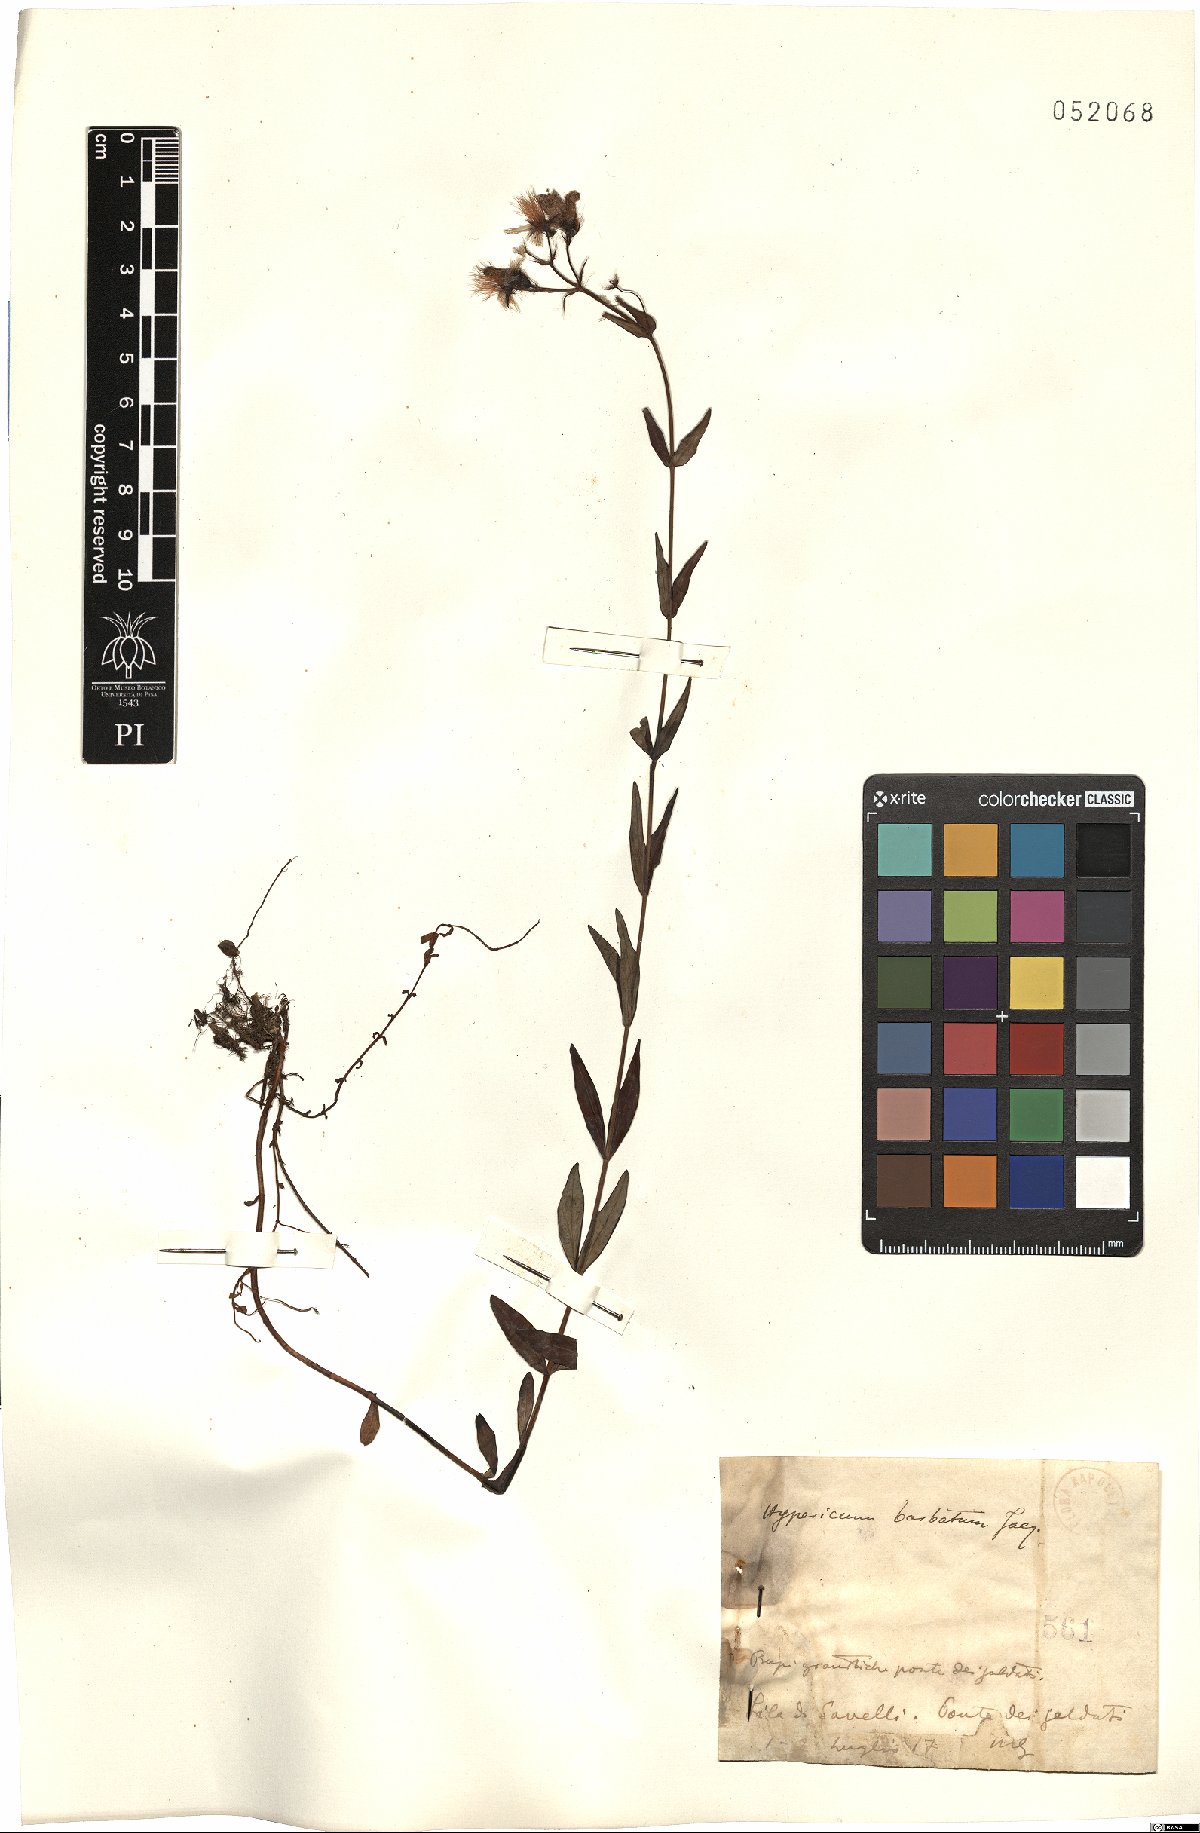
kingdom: Plantae
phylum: Tracheophyta
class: Magnoliopsida
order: Malpighiales
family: Hypericaceae
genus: Hypericum
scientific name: Hypericum barbatum
